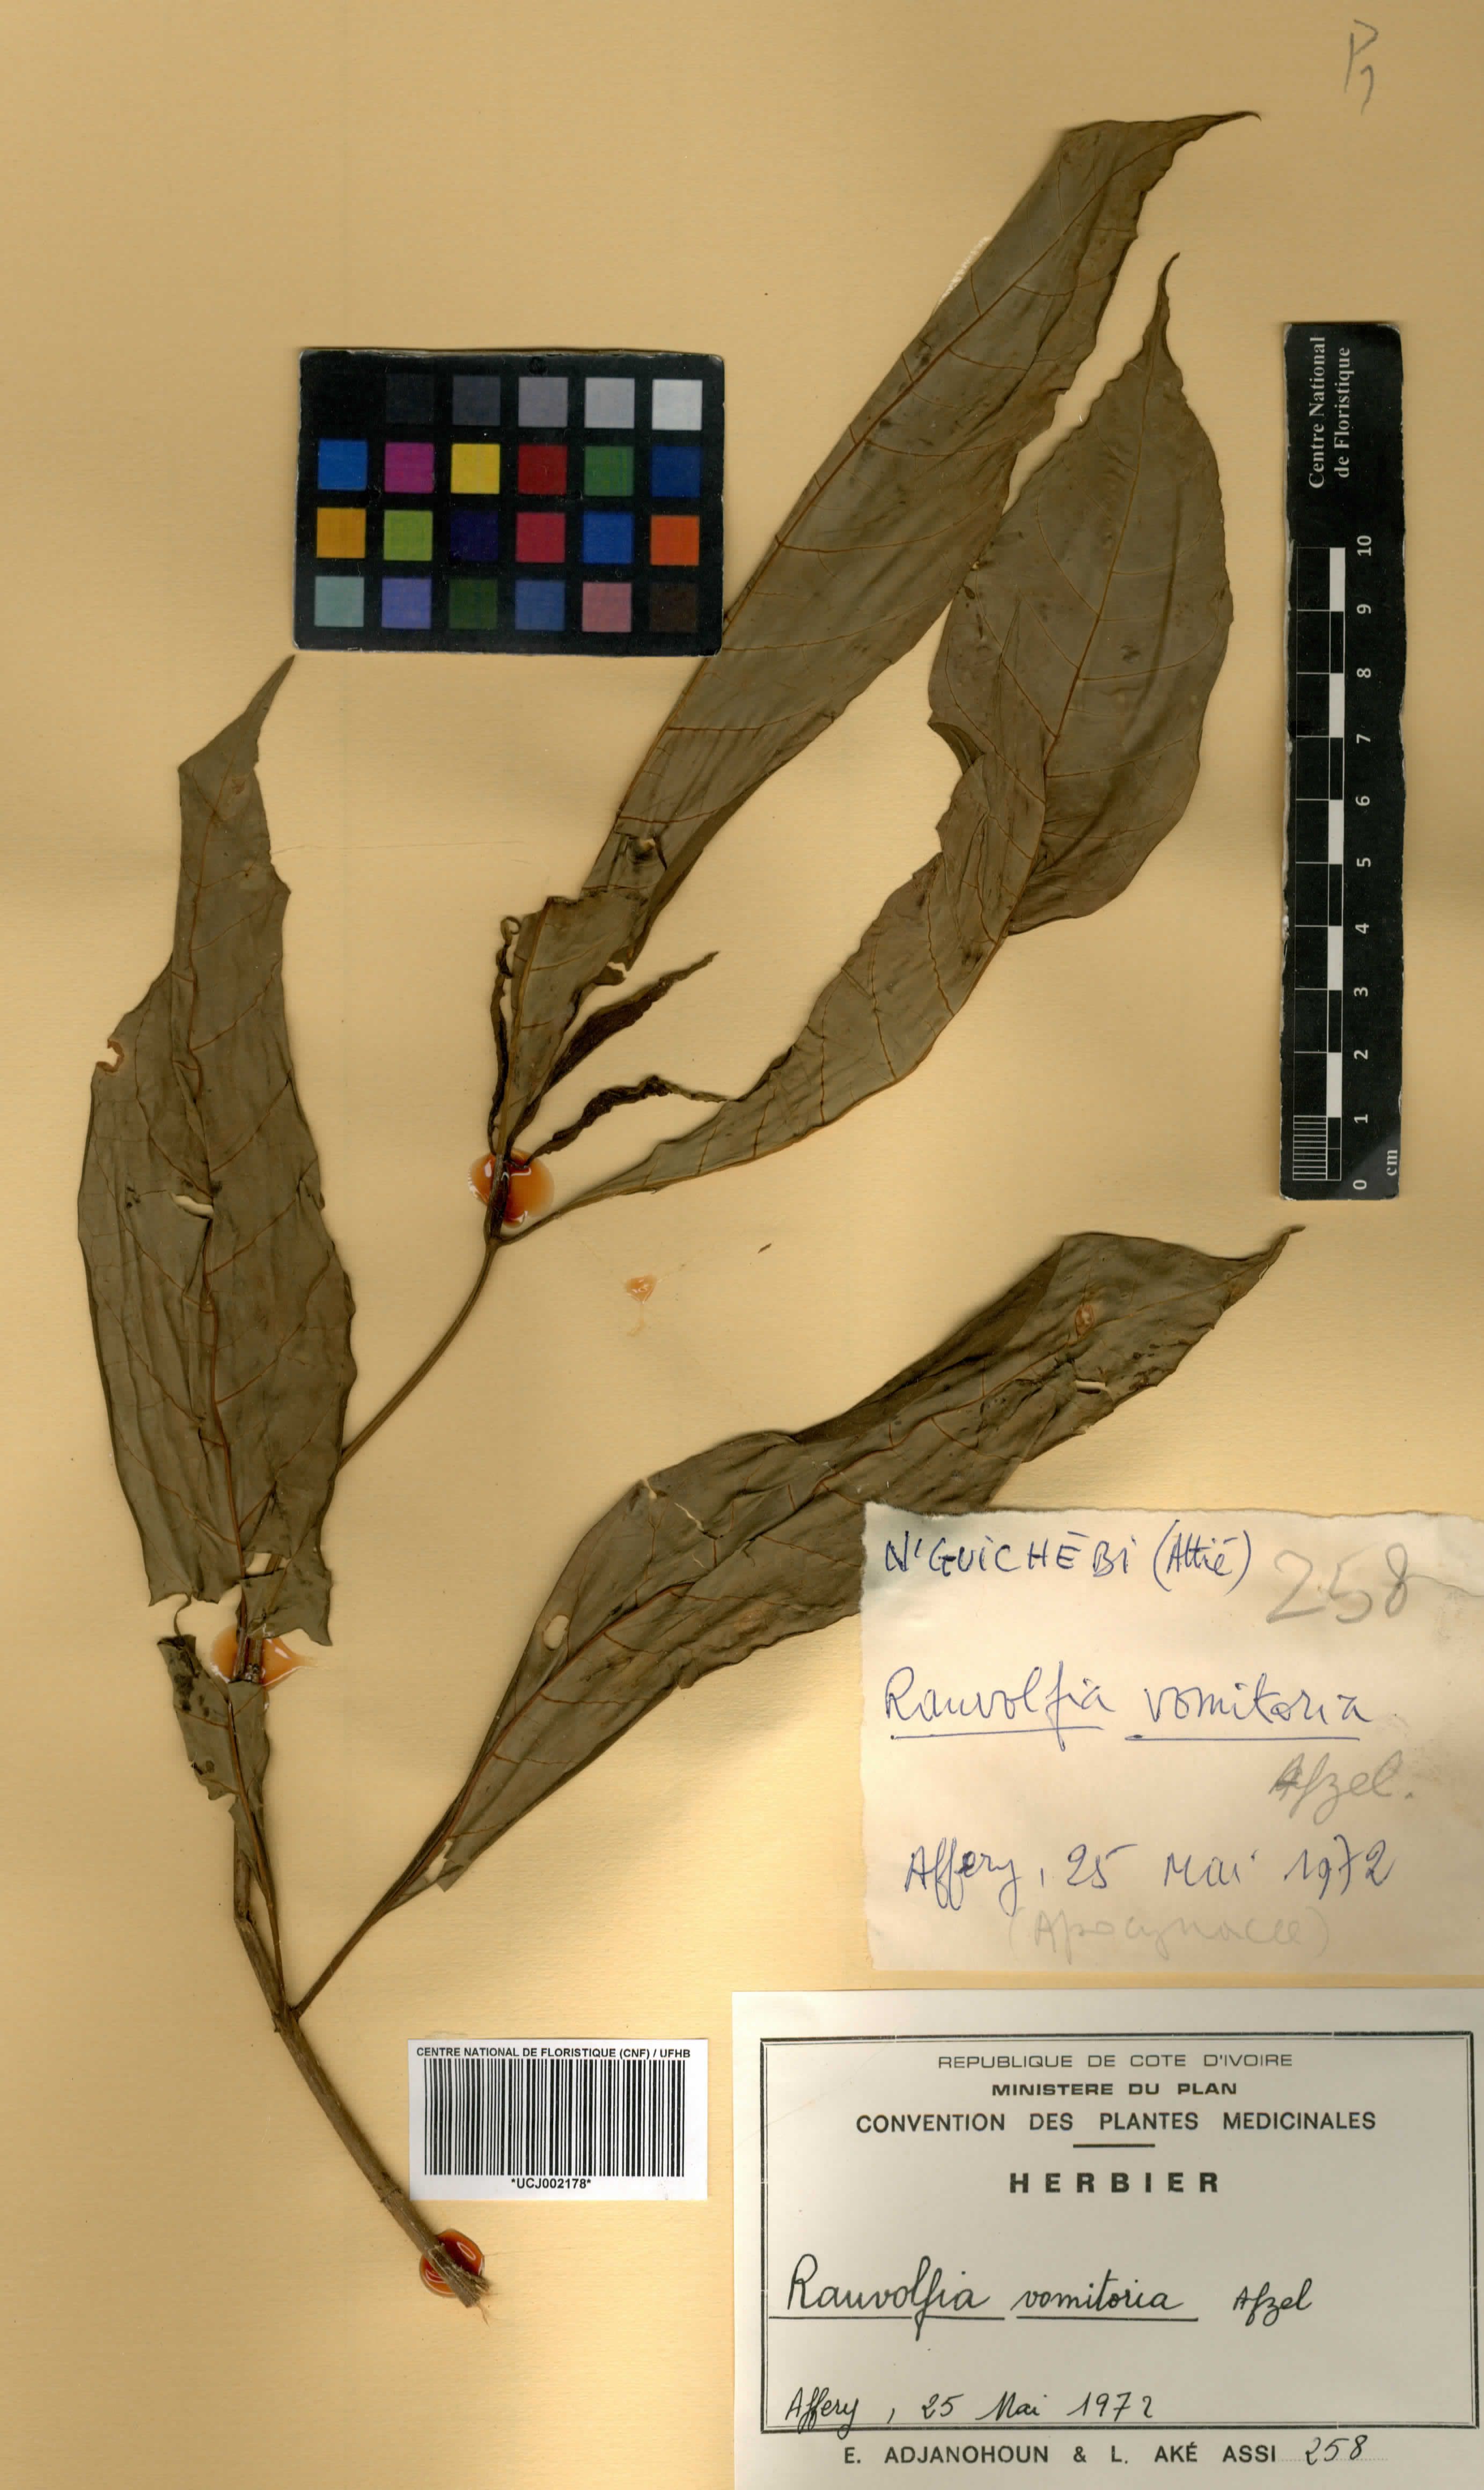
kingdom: Plantae
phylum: Tracheophyta
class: Magnoliopsida
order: Gentianales
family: Apocynaceae
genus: Rauvolfia
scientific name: Rauvolfia vomitoria
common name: Poison devil's-pepper
